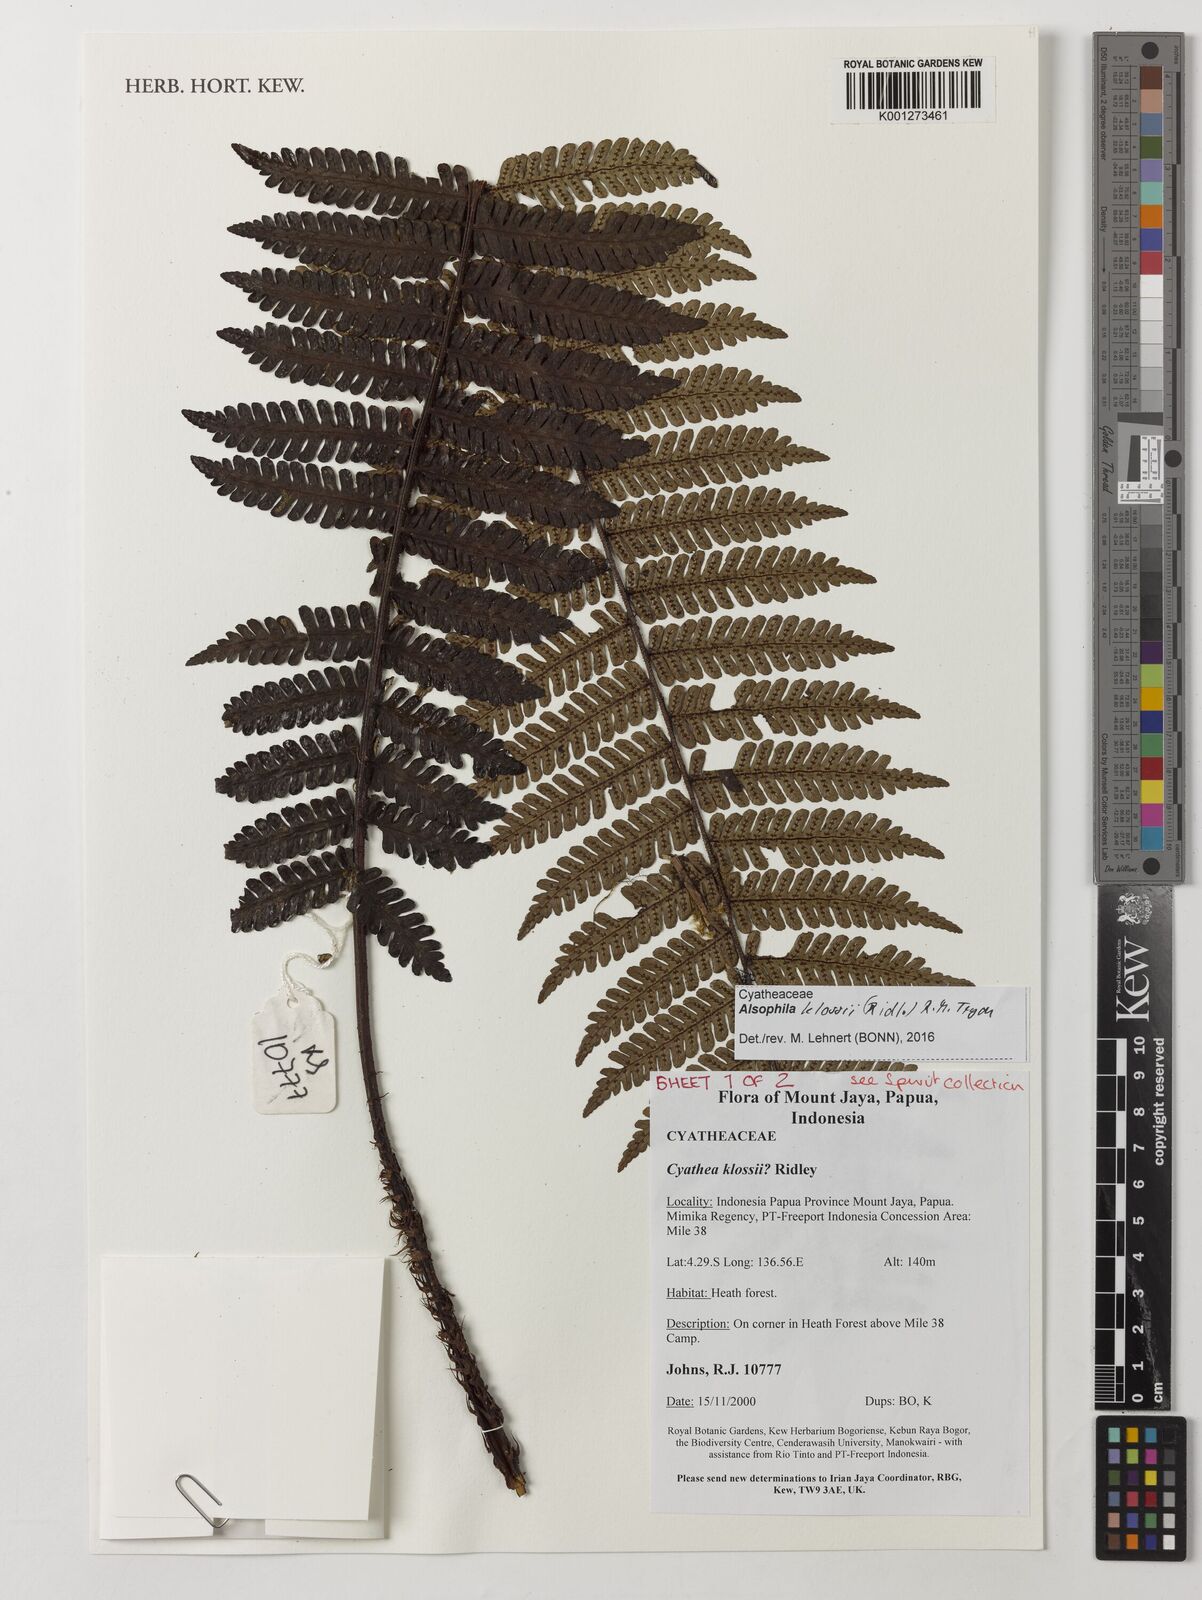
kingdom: Plantae
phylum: Tracheophyta
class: Polypodiopsida
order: Cyatheales
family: Cyatheaceae
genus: Alsophila
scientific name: Alsophila klossii
